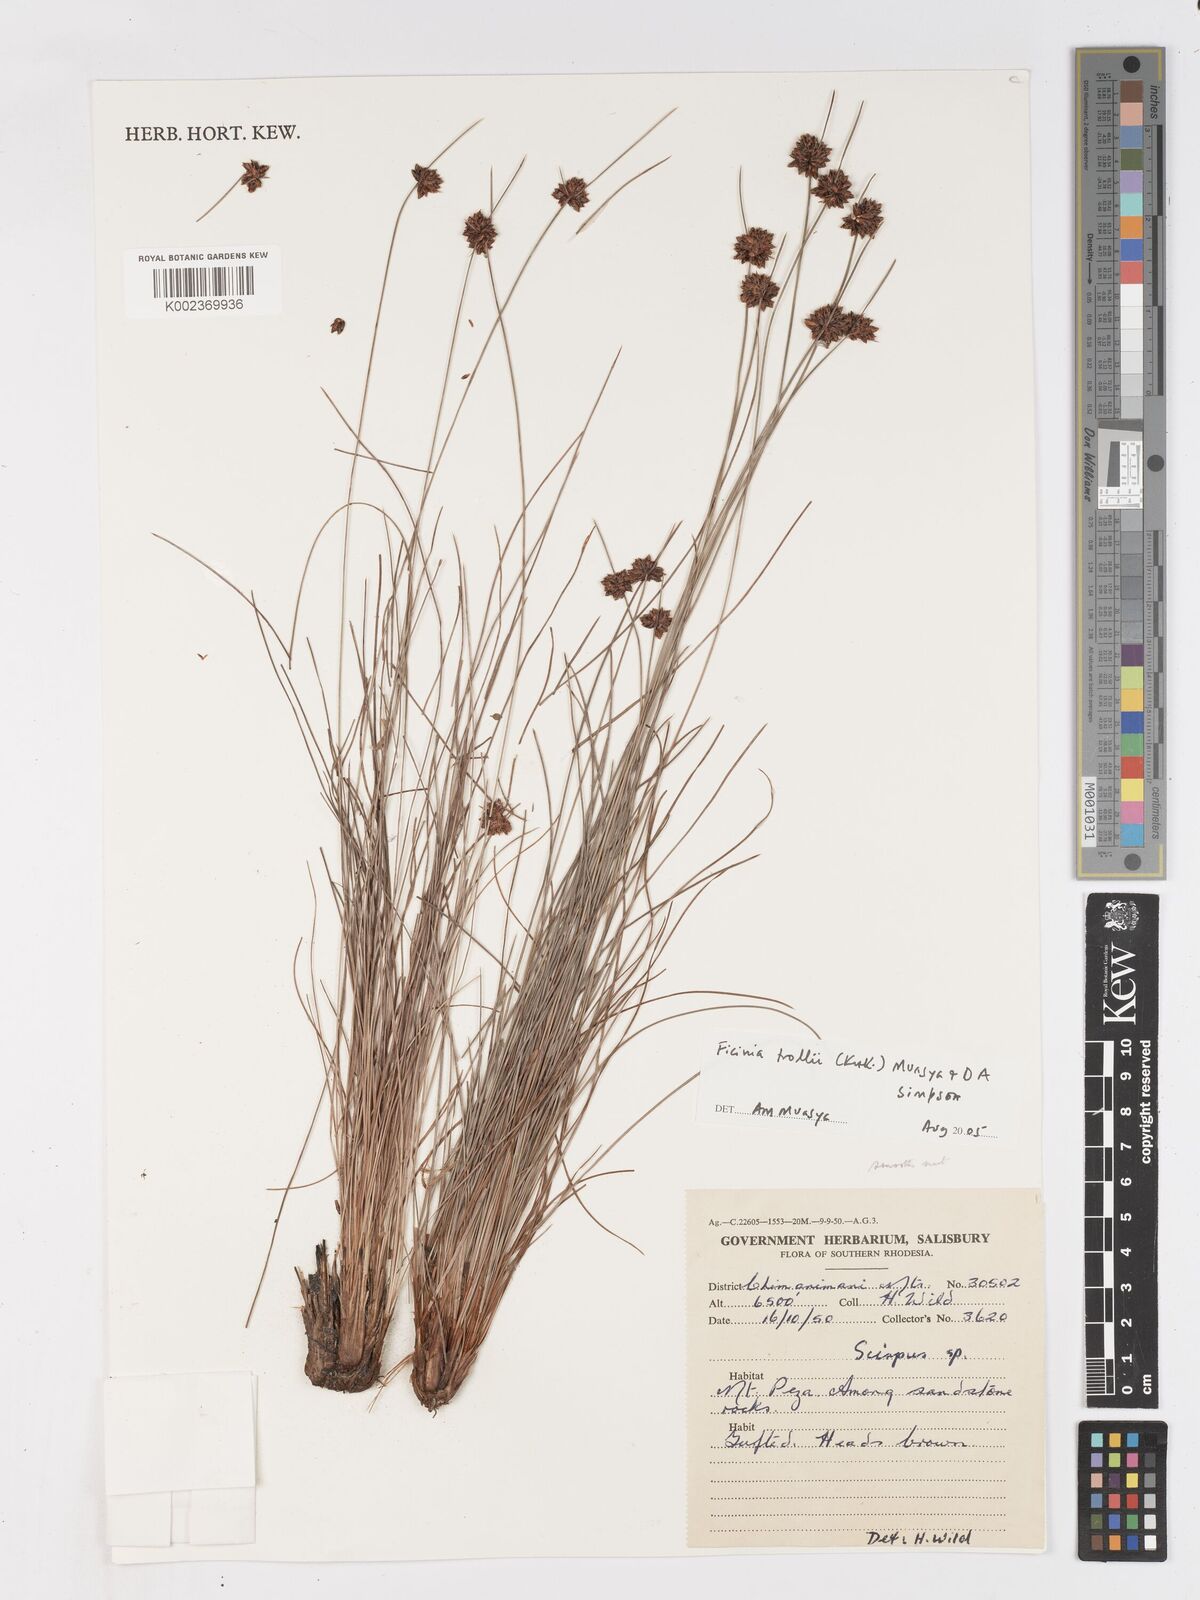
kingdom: Plantae
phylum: Tracheophyta
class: Liliopsida
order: Poales
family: Cyperaceae
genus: Ficinia
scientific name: Ficinia trollii
